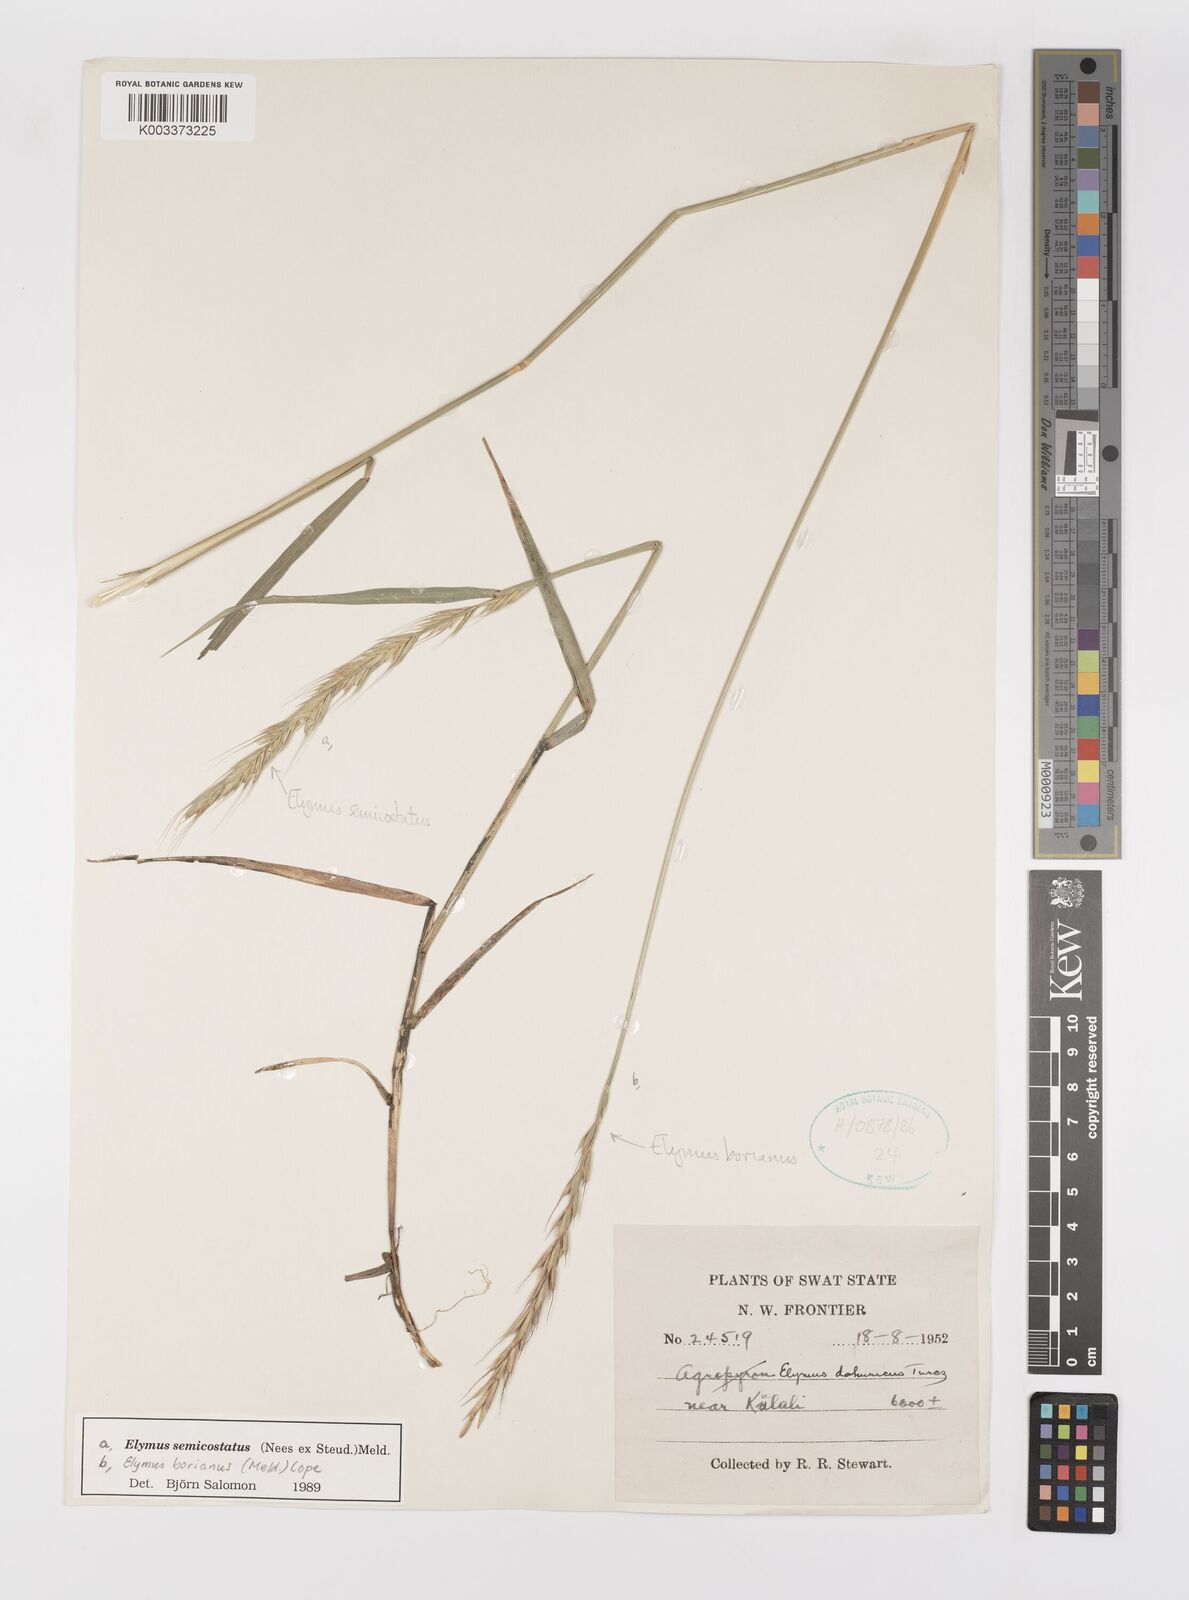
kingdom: Plantae
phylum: Tracheophyta
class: Liliopsida
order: Poales
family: Poaceae
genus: Elymus
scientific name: Elymus borianus
